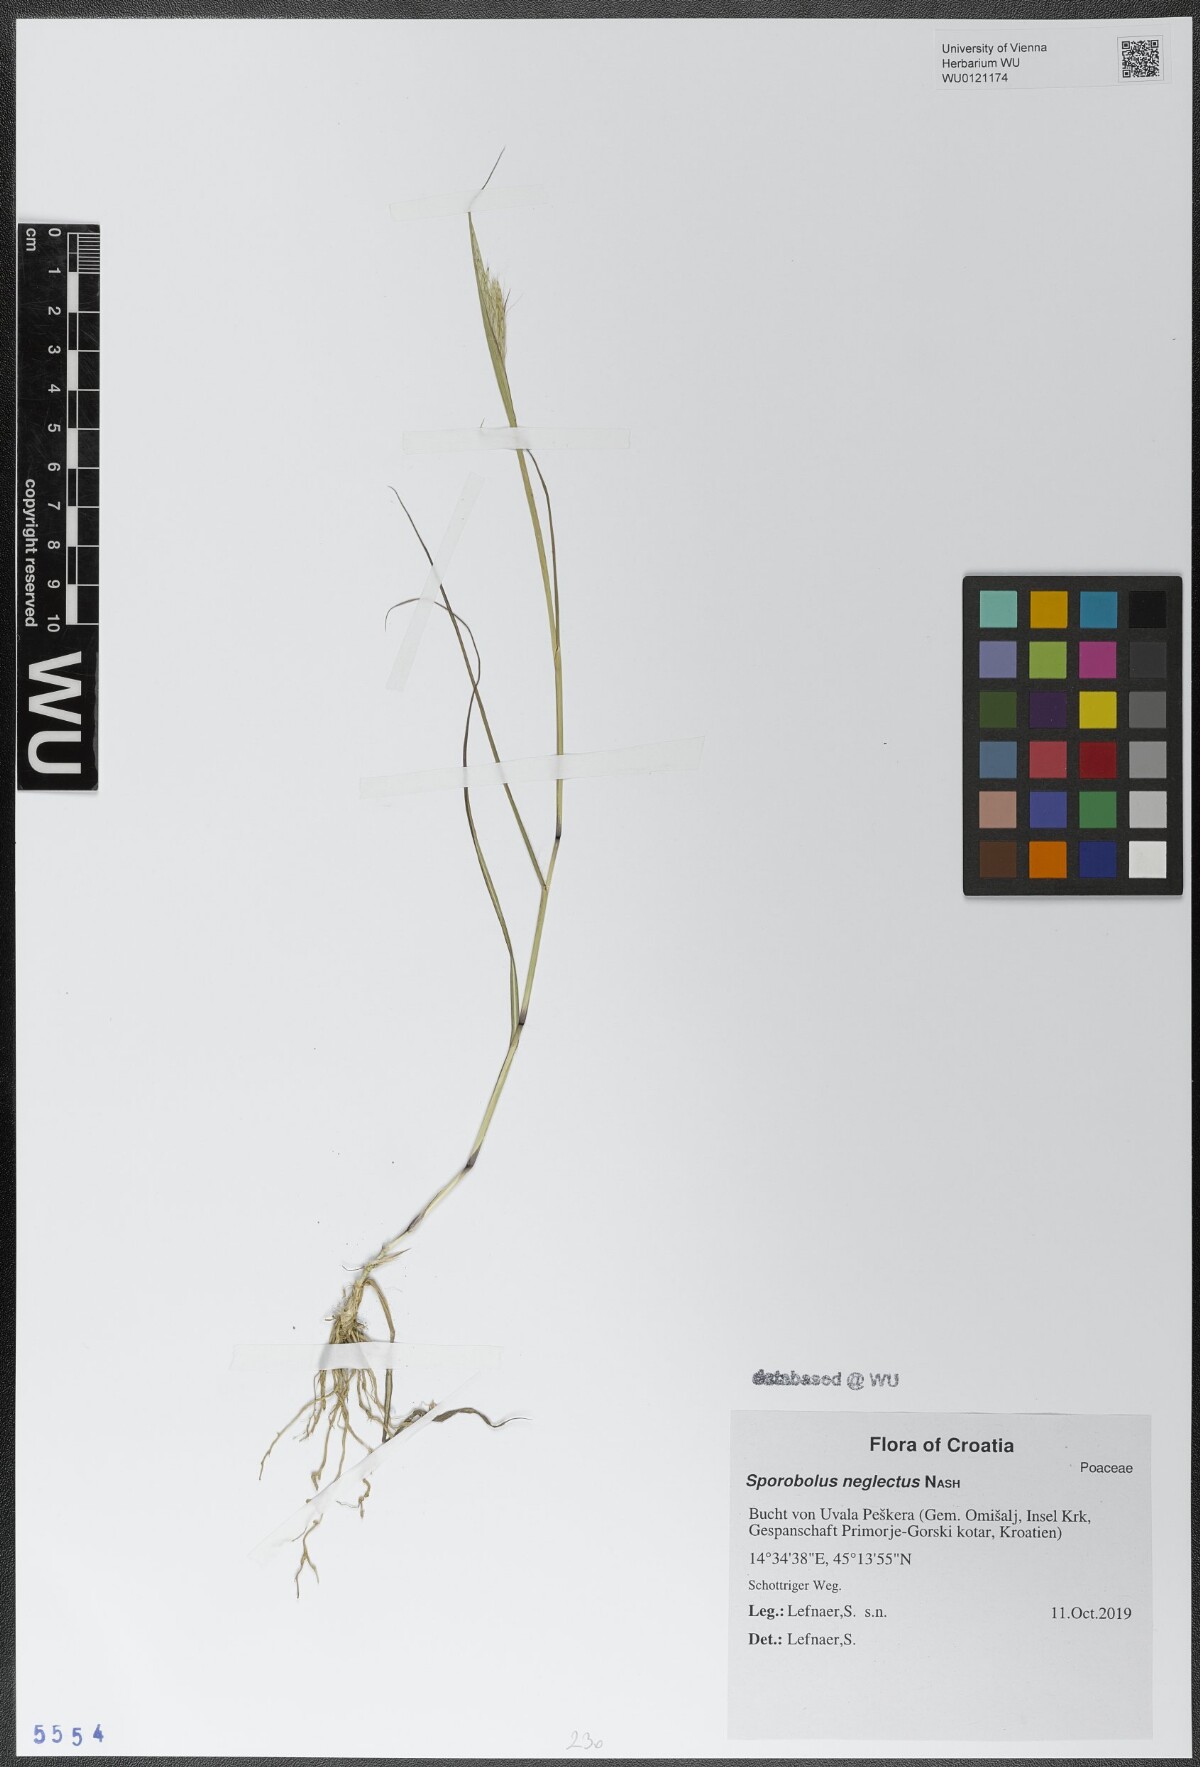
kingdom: Plantae
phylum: Tracheophyta
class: Liliopsida
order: Poales
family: Poaceae
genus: Sporobolus
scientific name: Sporobolus neglectus
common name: Annual dropseed
